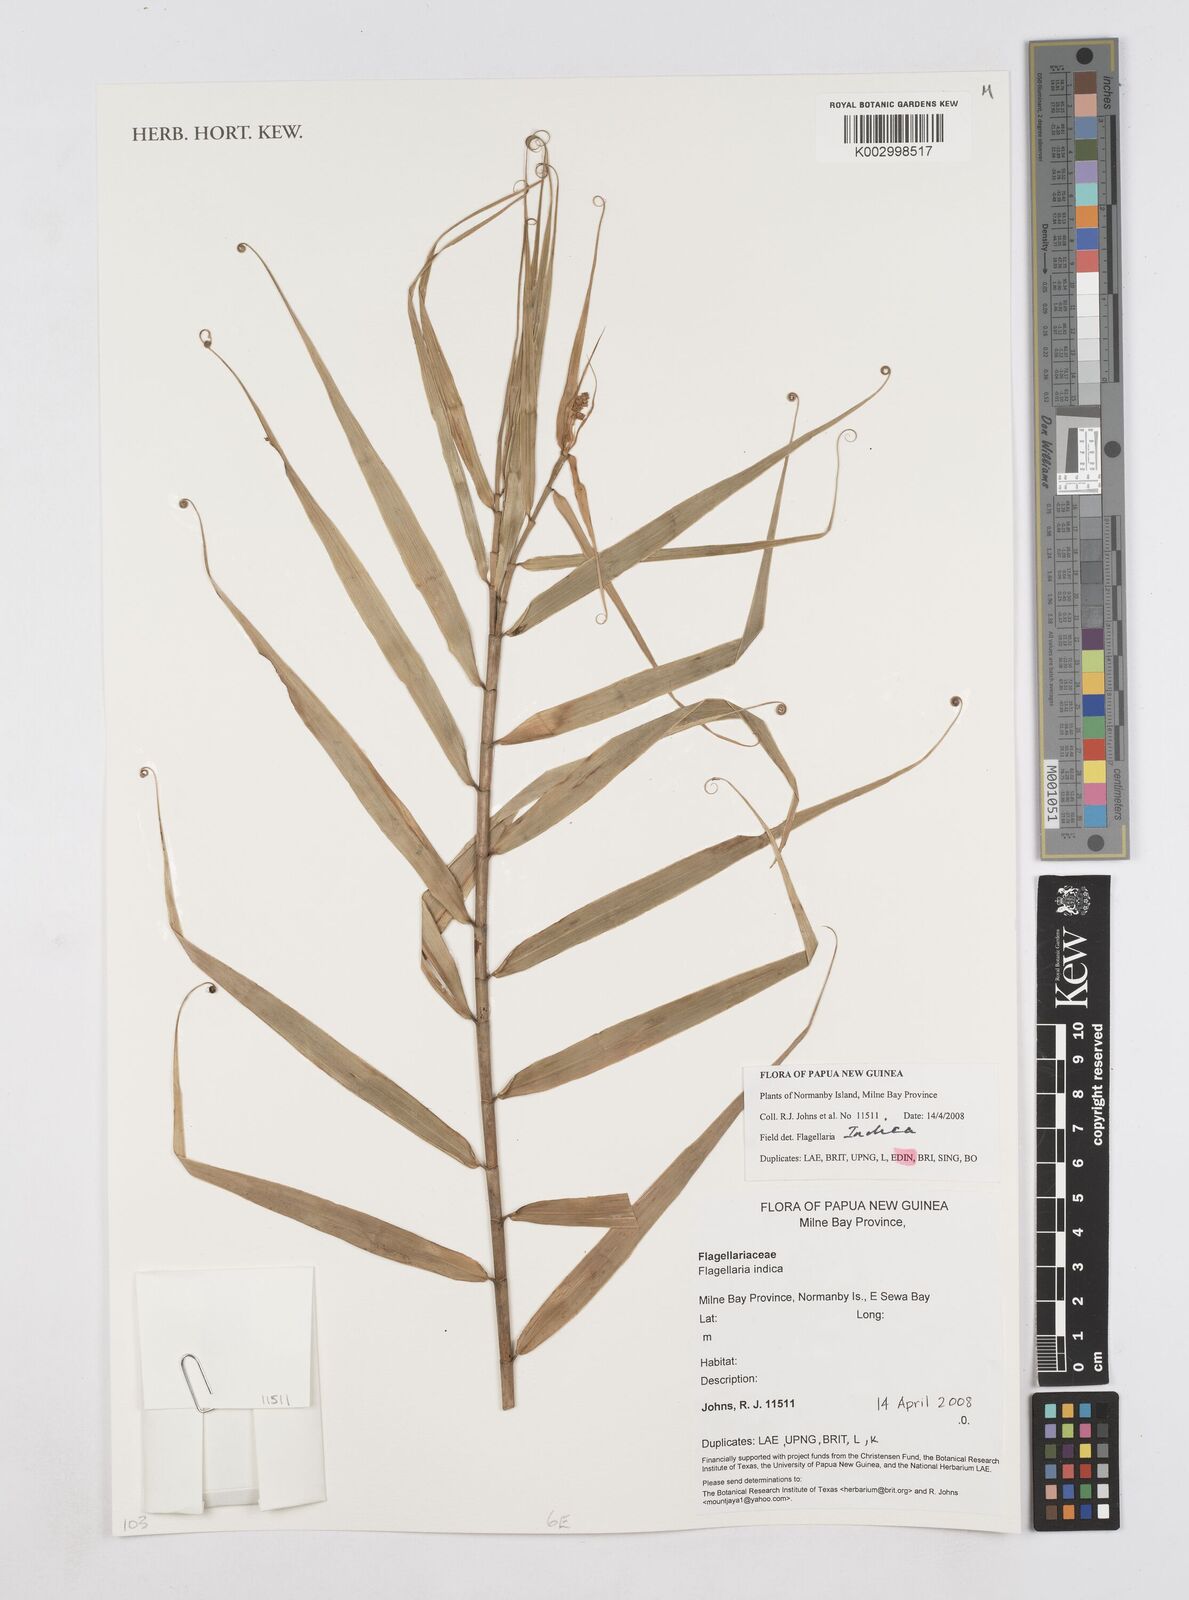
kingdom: Plantae
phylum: Tracheophyta
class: Liliopsida
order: Poales
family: Flagellariaceae
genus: Flagellaria
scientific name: Flagellaria indica
